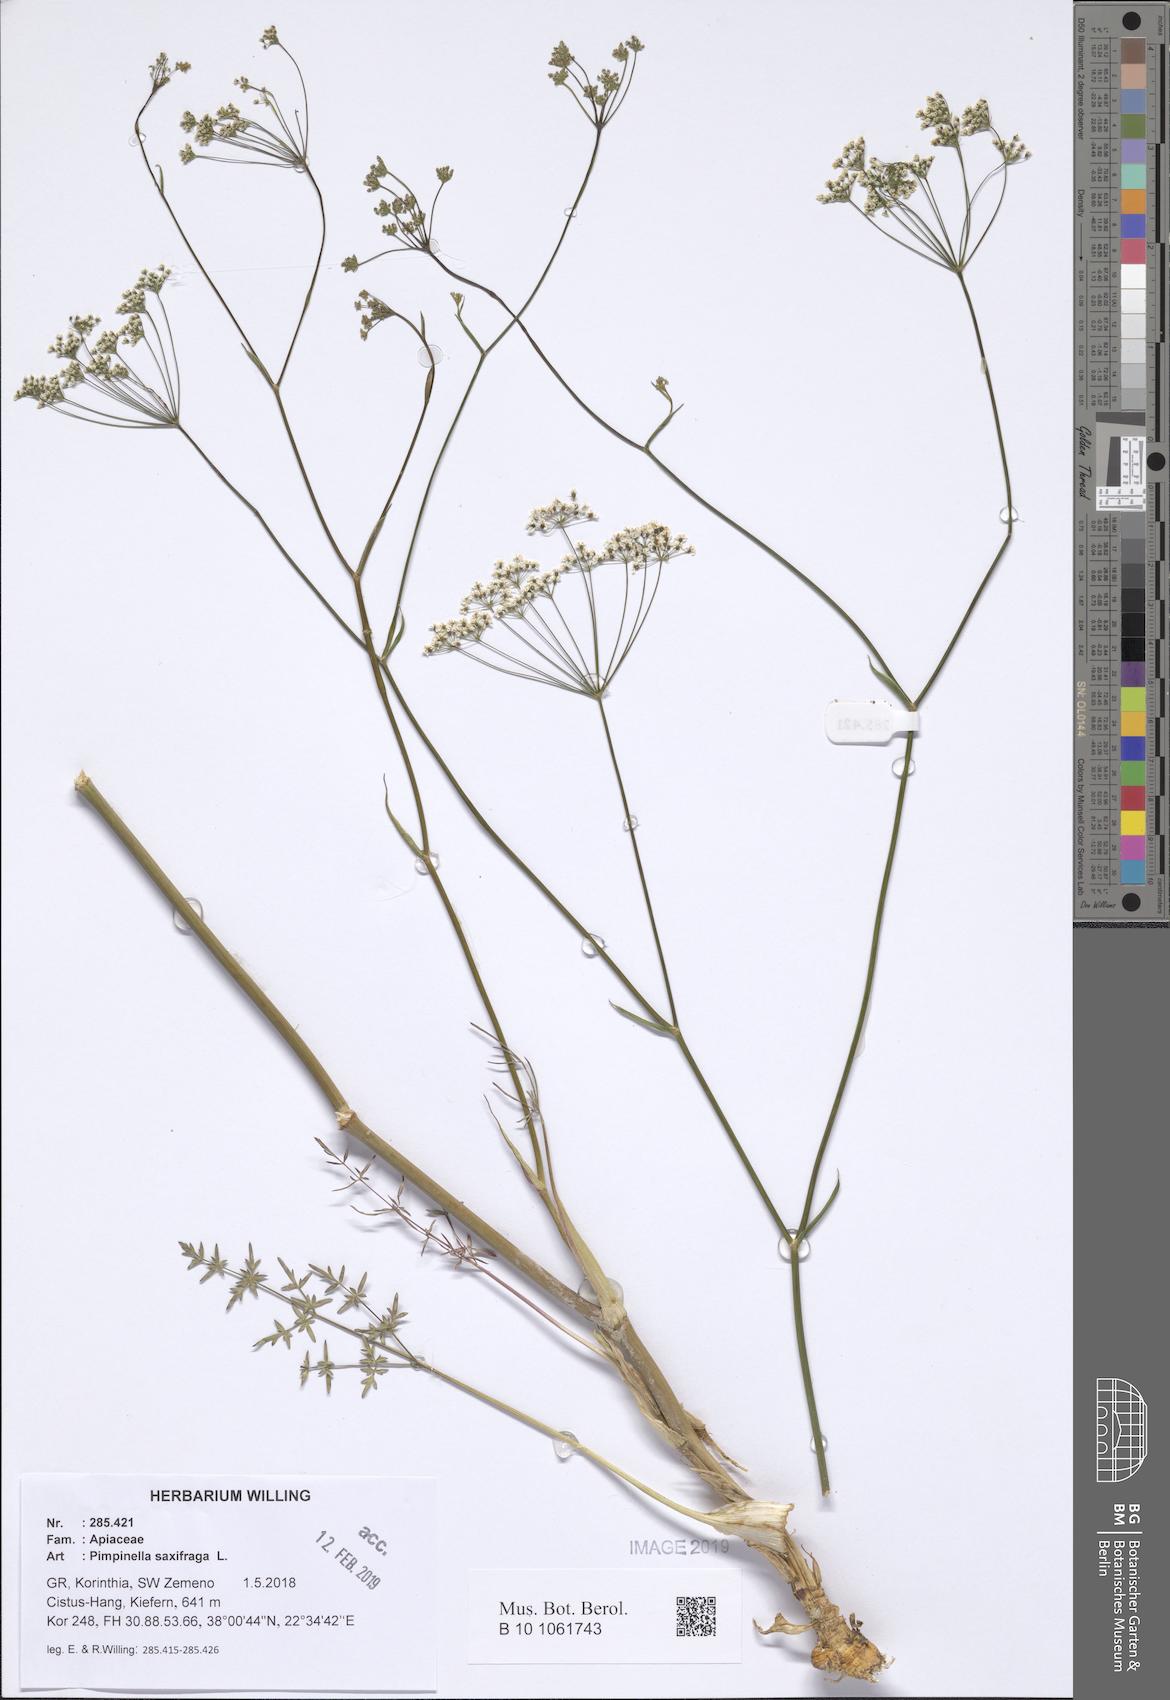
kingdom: Plantae
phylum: Tracheophyta
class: Magnoliopsida
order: Apiales
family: Apiaceae
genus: Pimpinella
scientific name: Pimpinella saxifraga
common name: Burnet-saxifrage
